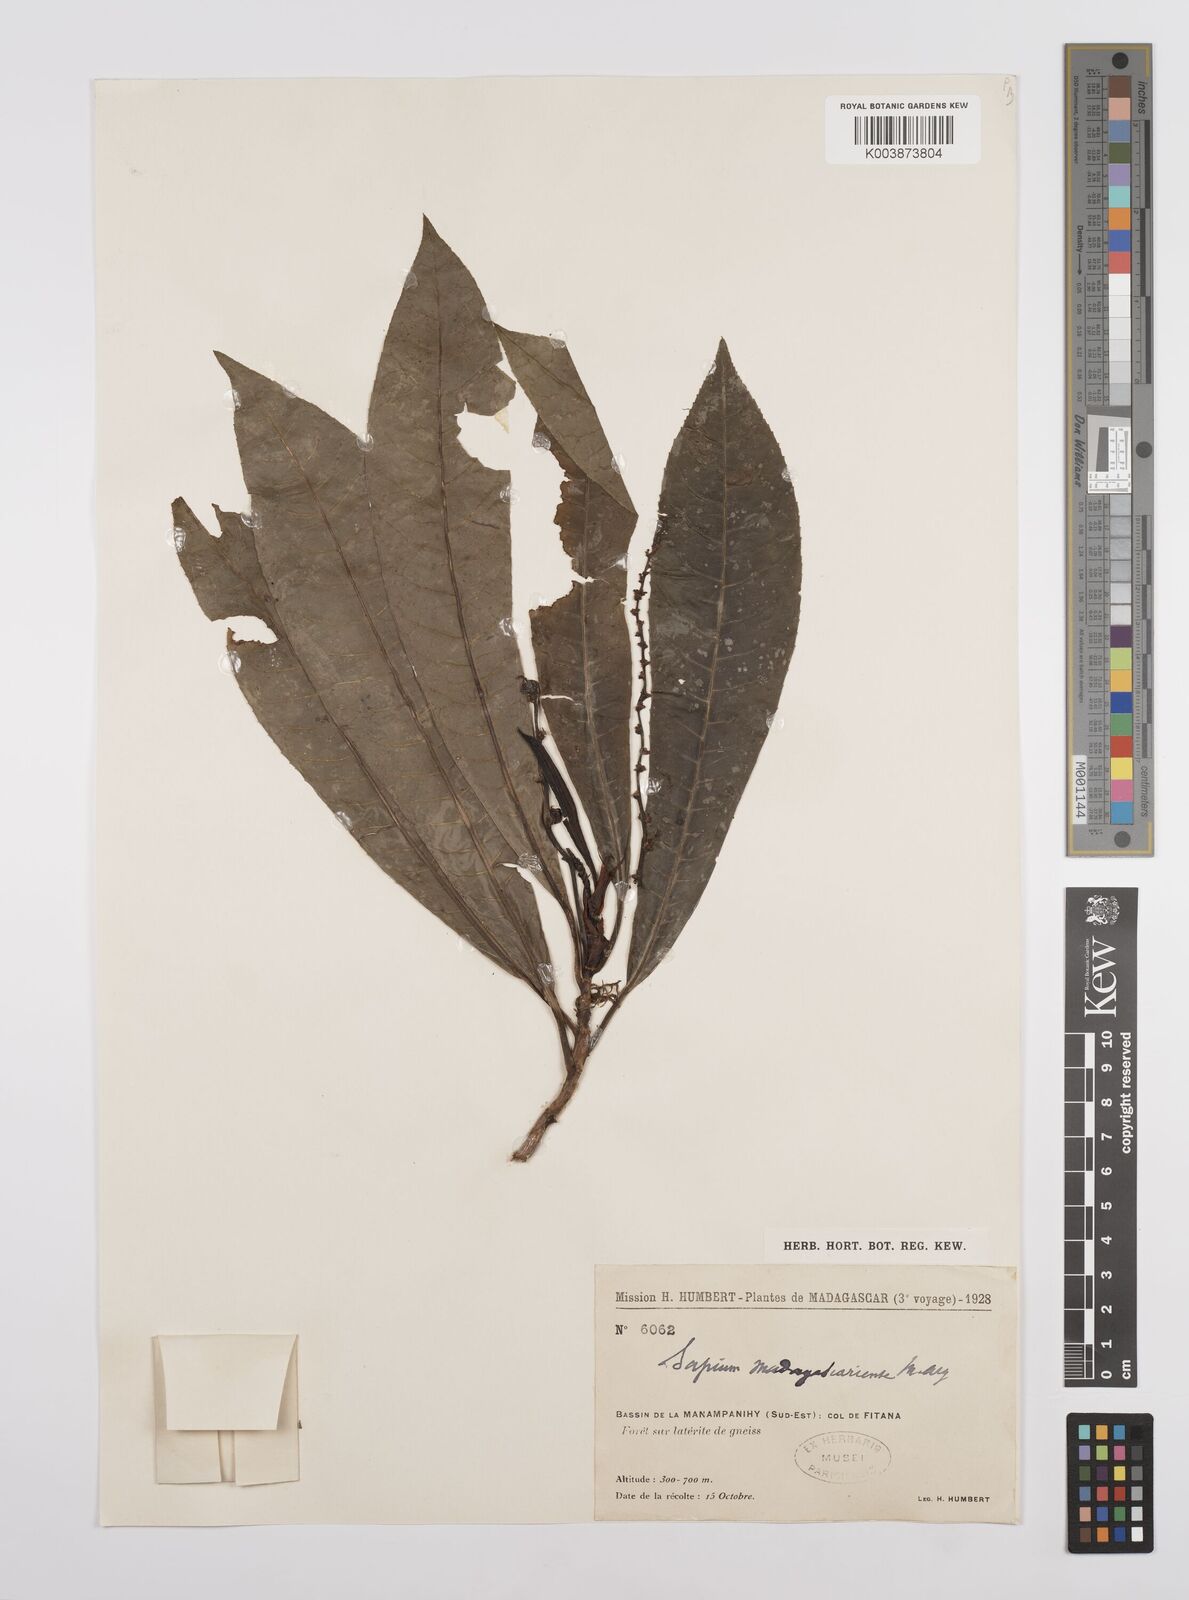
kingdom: Plantae
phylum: Tracheophyta
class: Magnoliopsida
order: Malpighiales
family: Euphorbiaceae
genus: Conosapium
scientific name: Conosapium madagascariense
